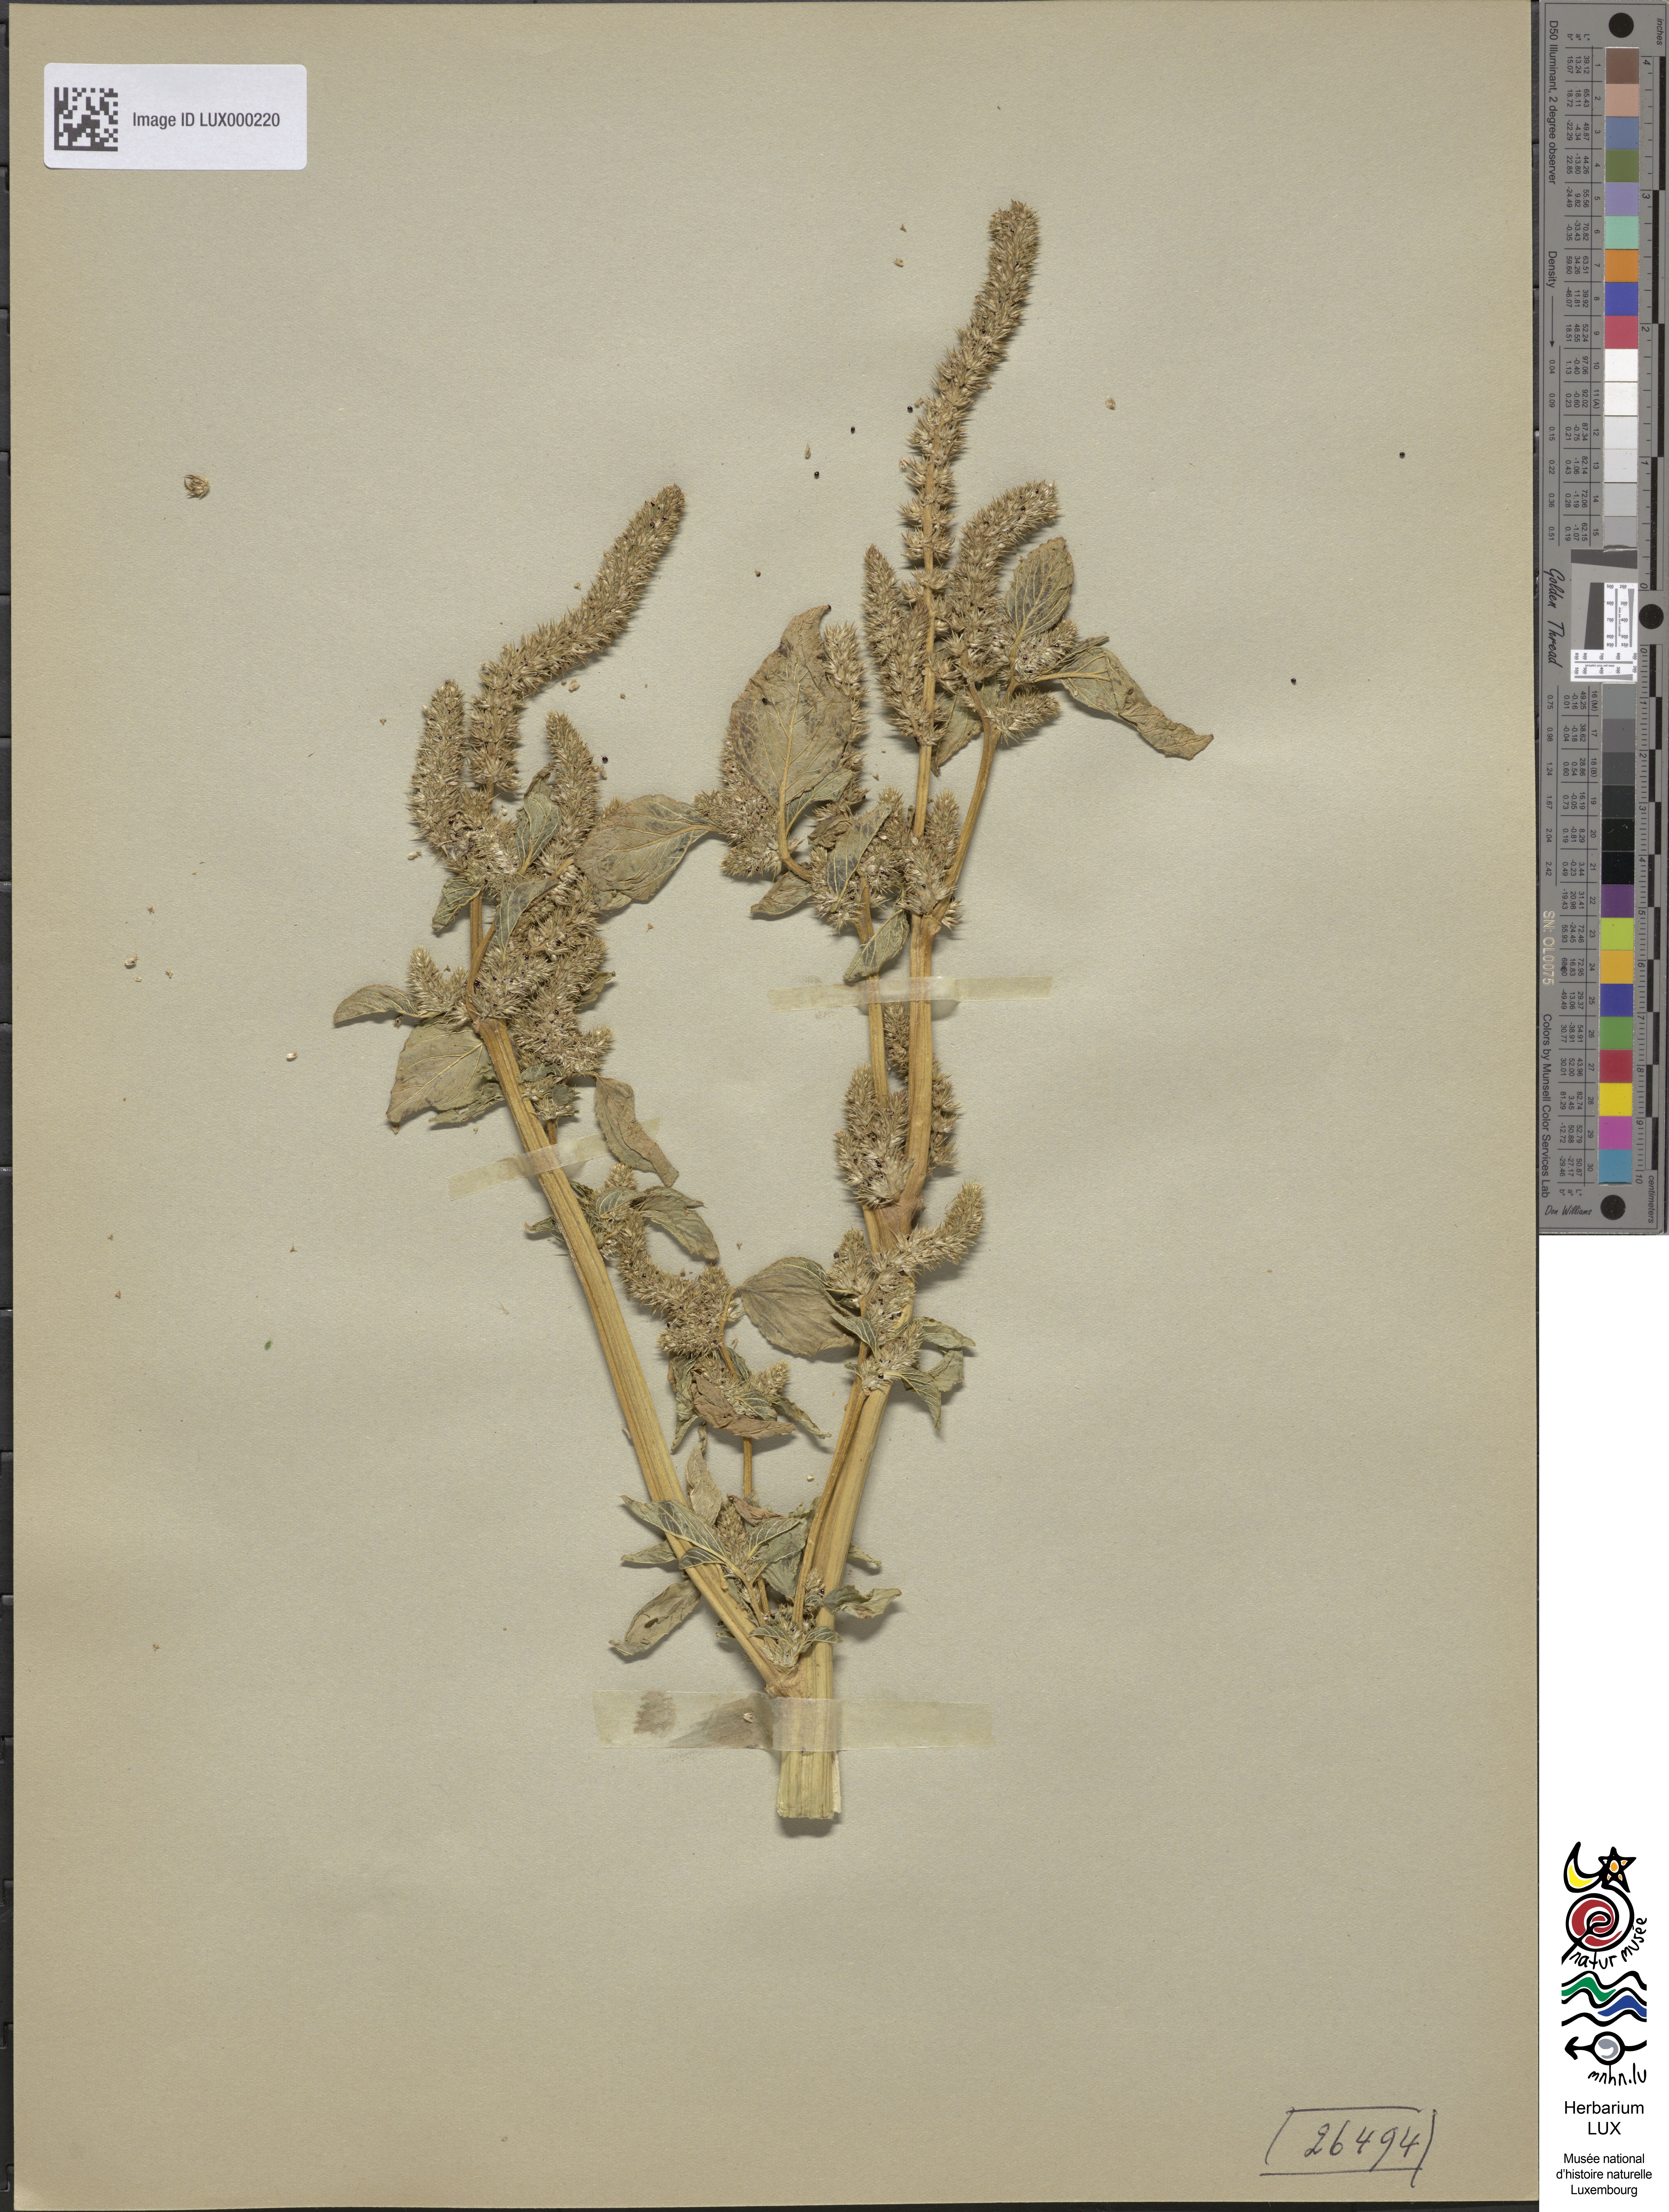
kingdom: Plantae
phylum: Tracheophyta
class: Magnoliopsida
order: Caryophyllales
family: Amaranthaceae
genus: Amaranthus
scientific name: Amaranthus
